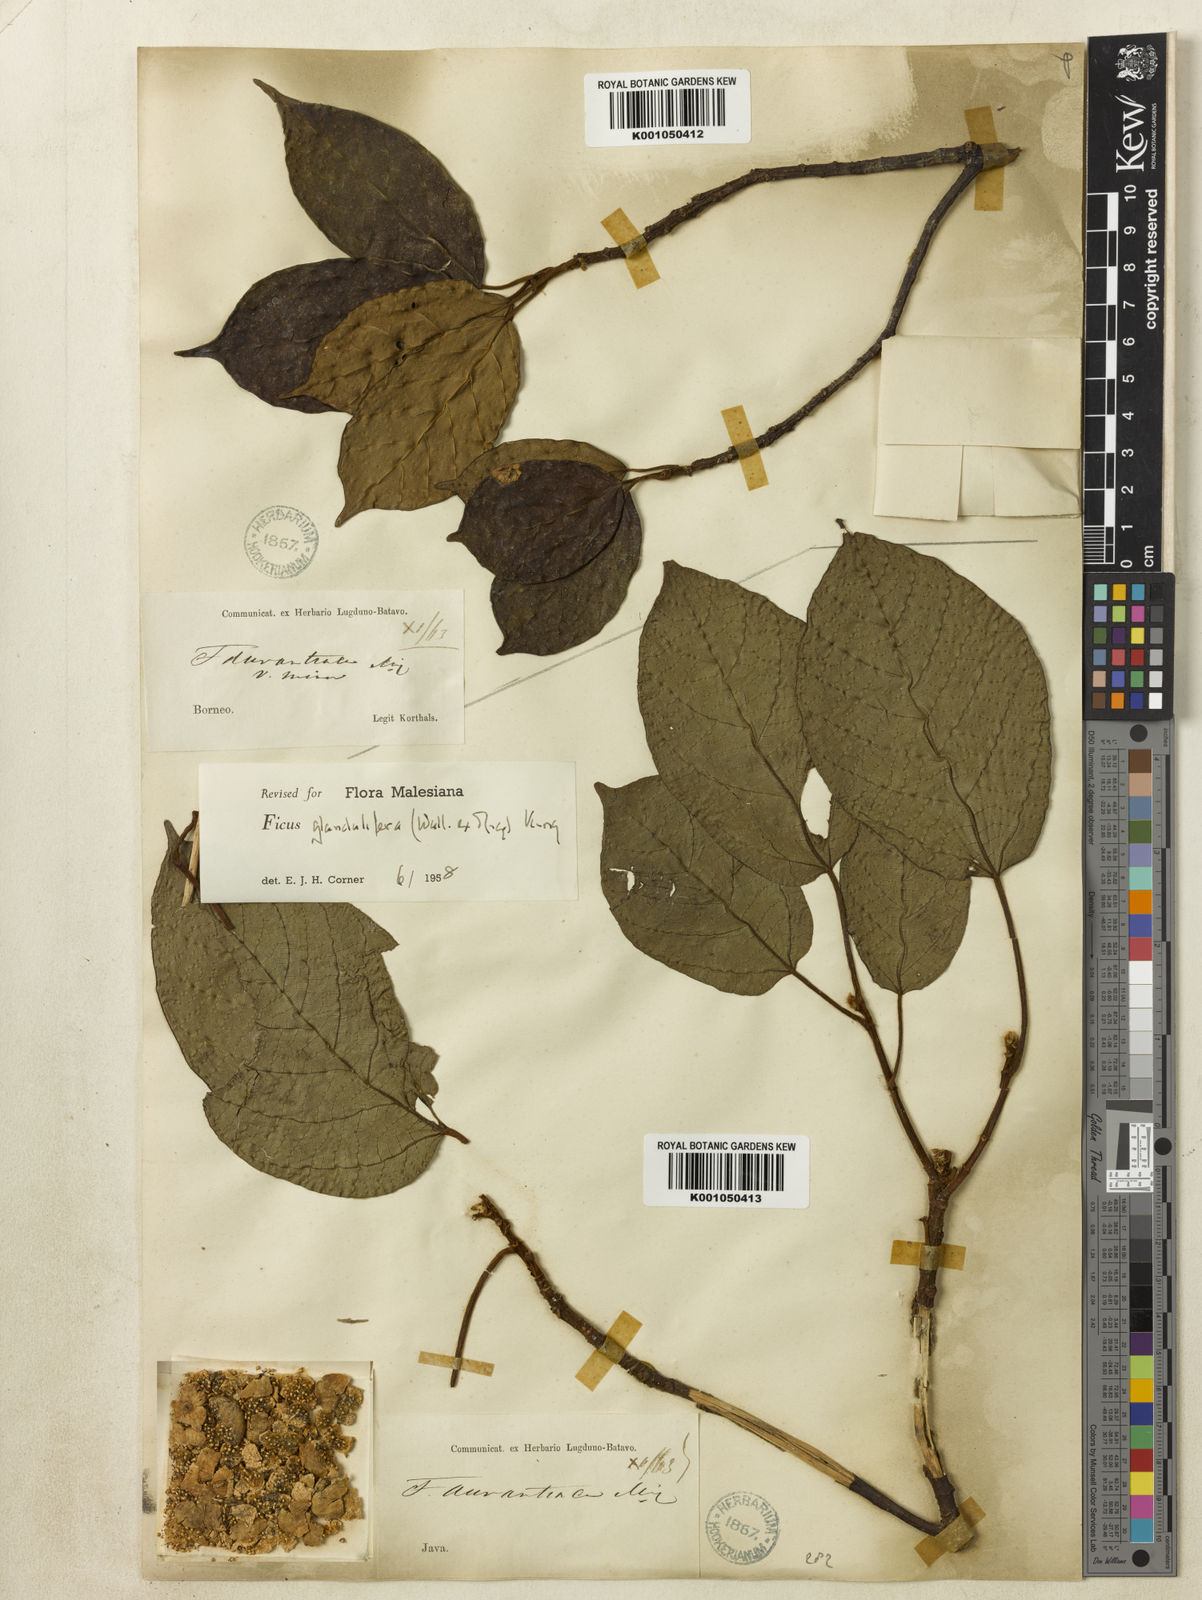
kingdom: Plantae
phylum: Tracheophyta
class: Magnoliopsida
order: Rosales
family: Moraceae
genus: Ficus
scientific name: Ficus
